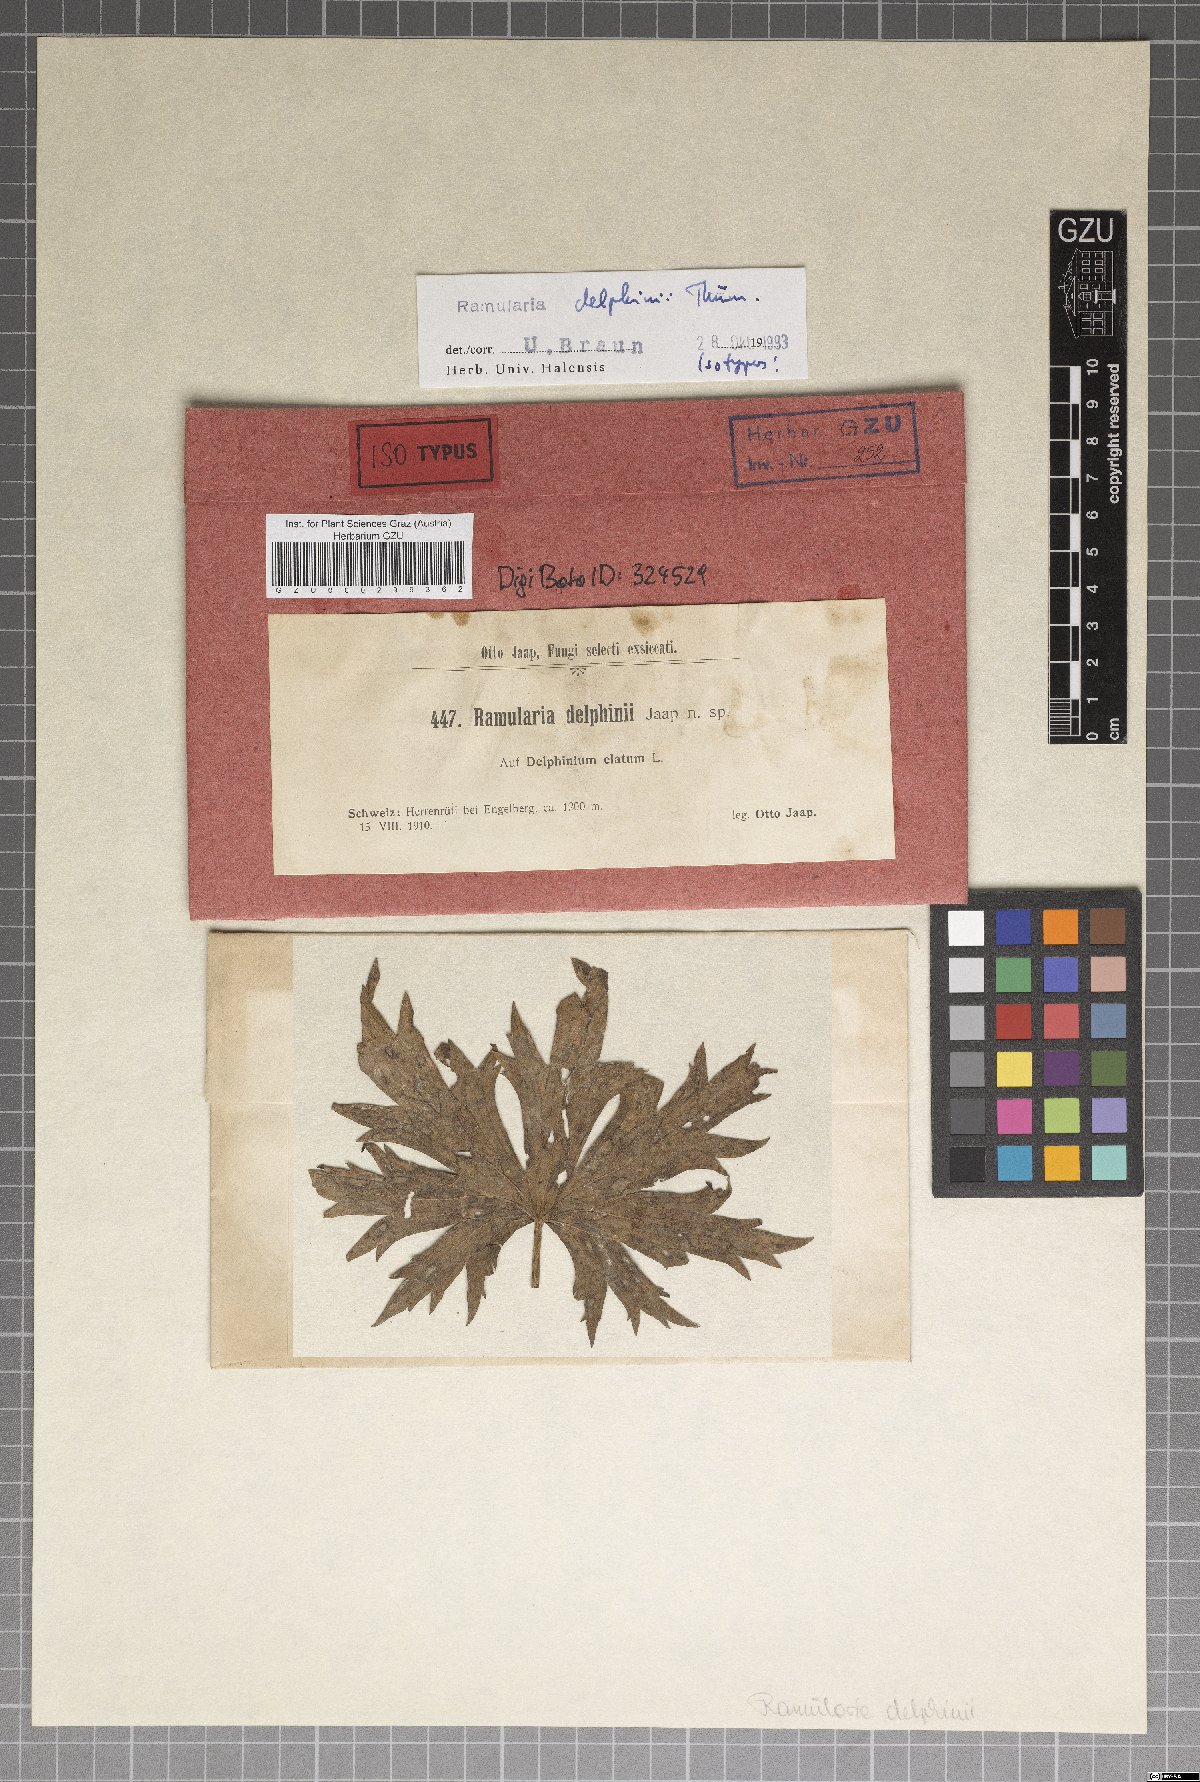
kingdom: Fungi
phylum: Ascomycota
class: Dothideomycetes
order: Capnodiales
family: Mycosphaerellaceae
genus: Ramularia
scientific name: Ramularia delphinii
